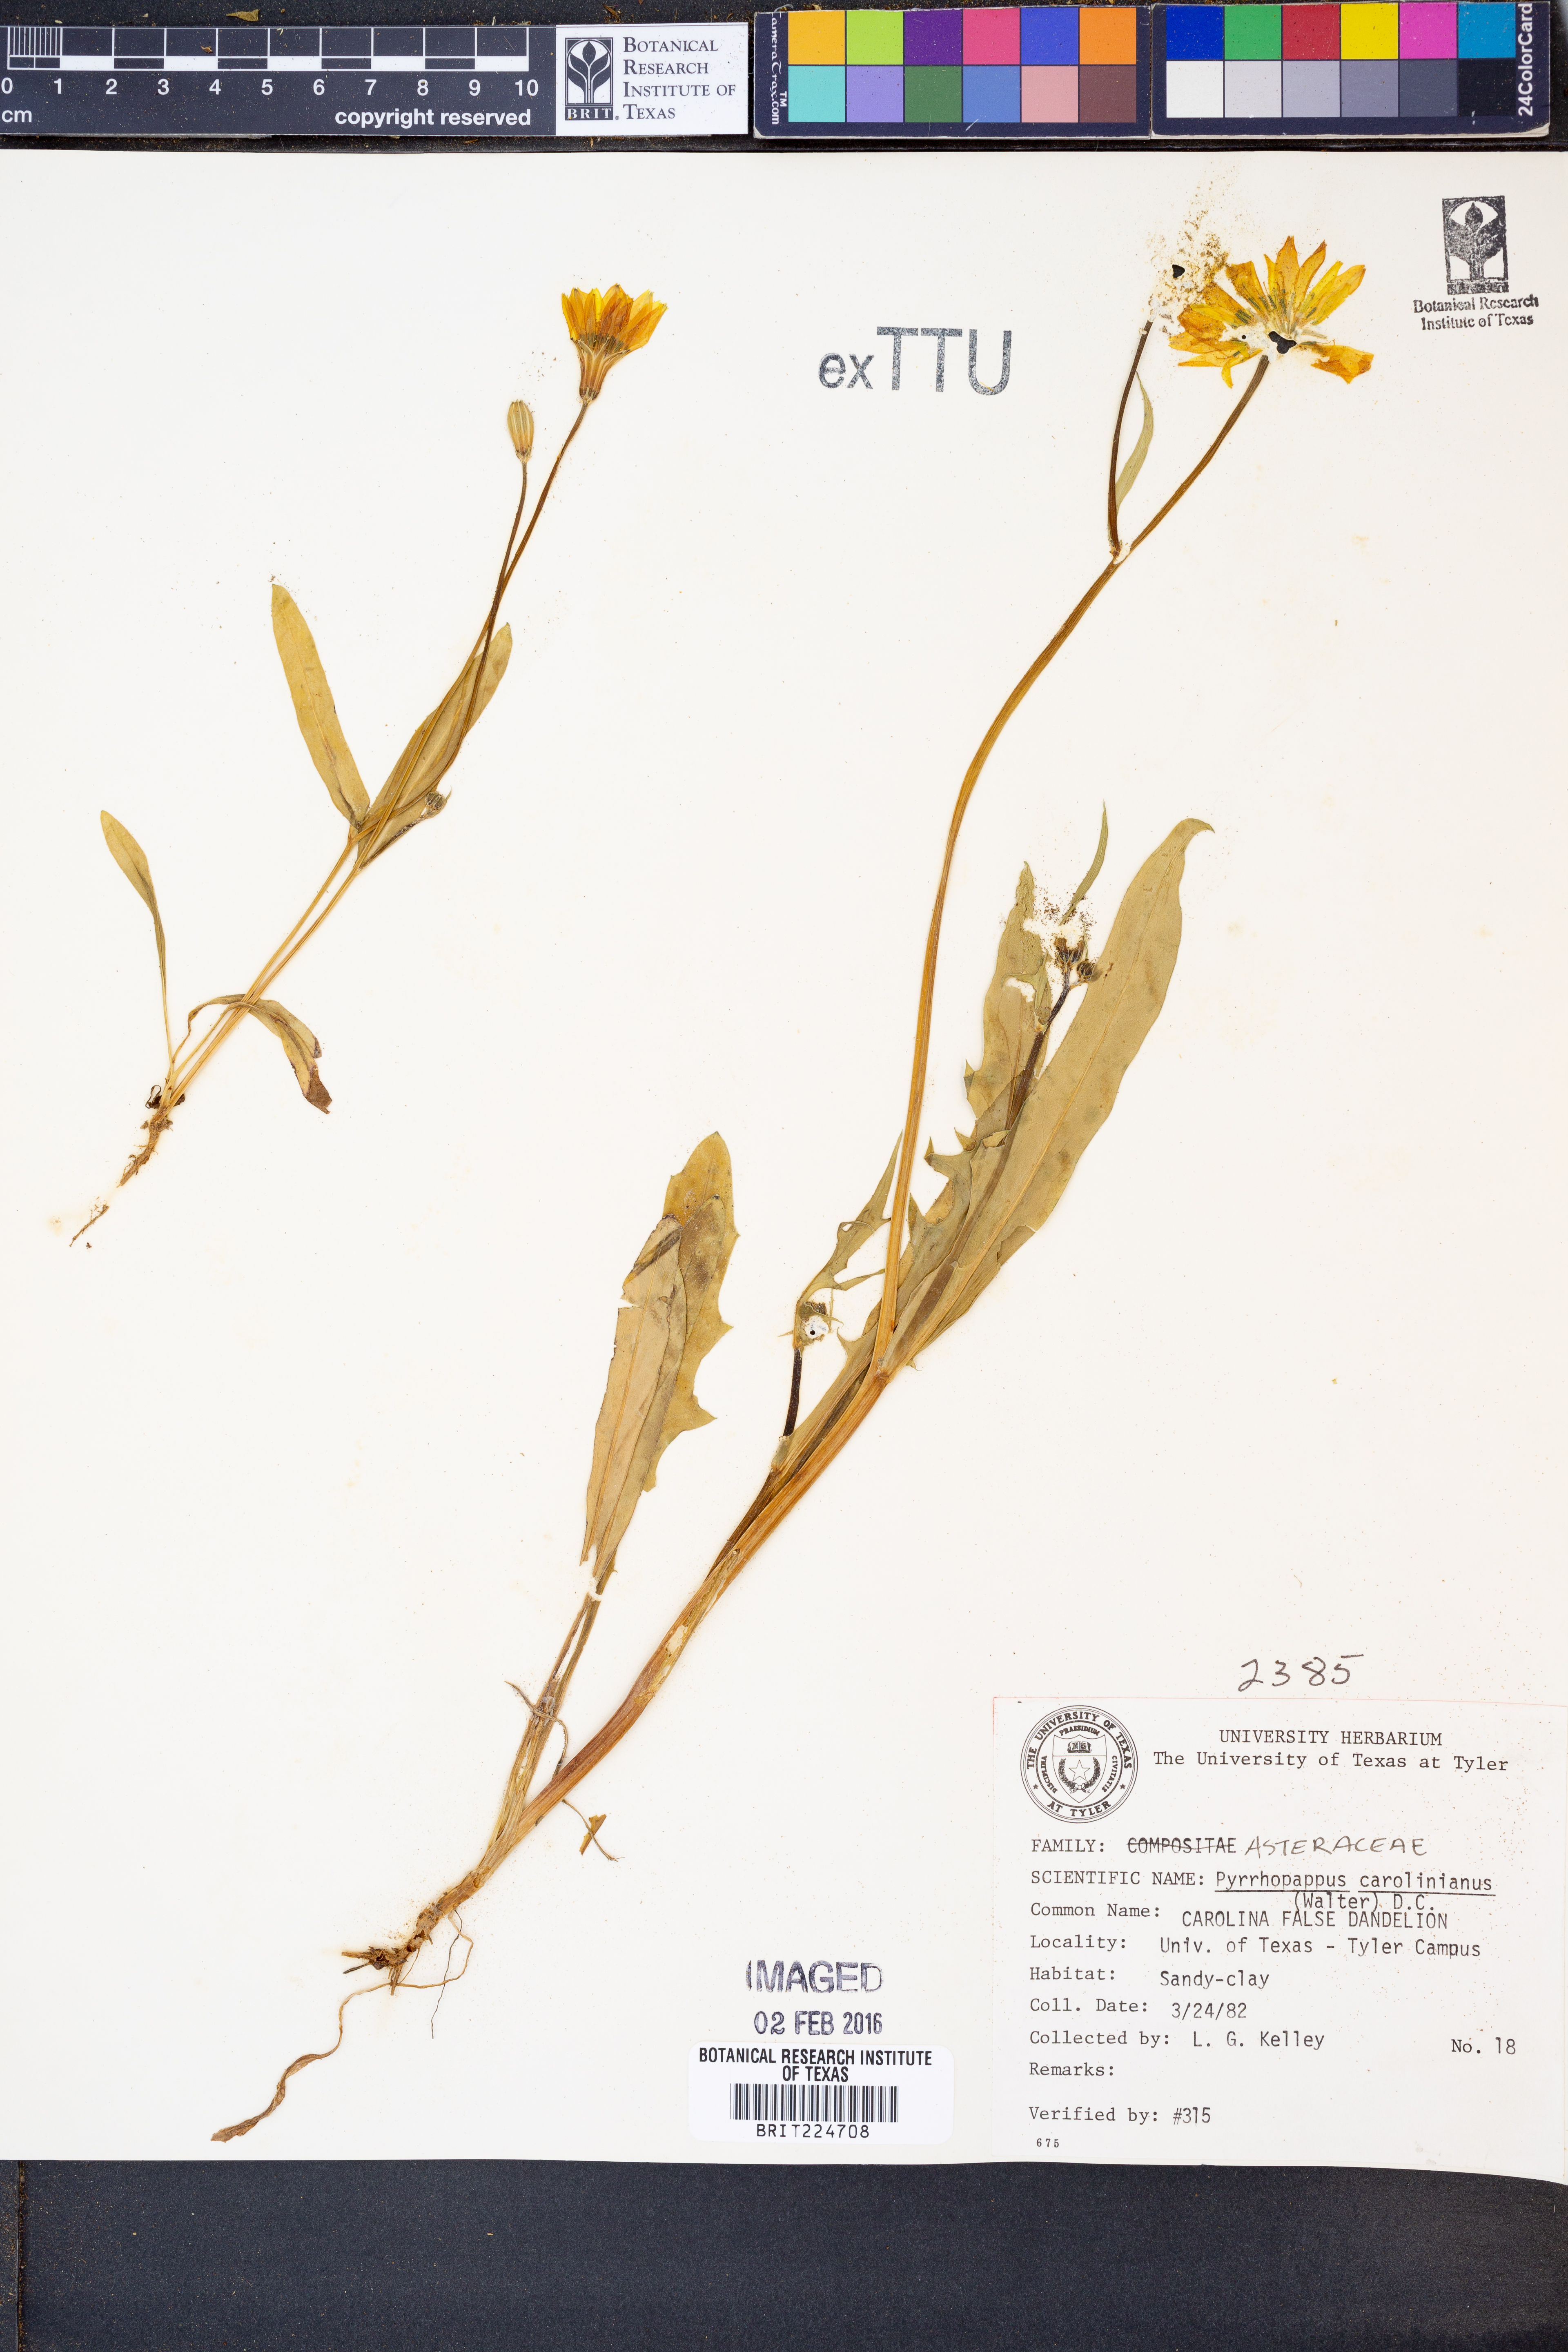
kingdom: Plantae
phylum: Tracheophyta
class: Magnoliopsida
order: Asterales
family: Asteraceae
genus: Pyrrhopappus
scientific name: Pyrrhopappus carolinianus
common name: Carolina desert-chicory
